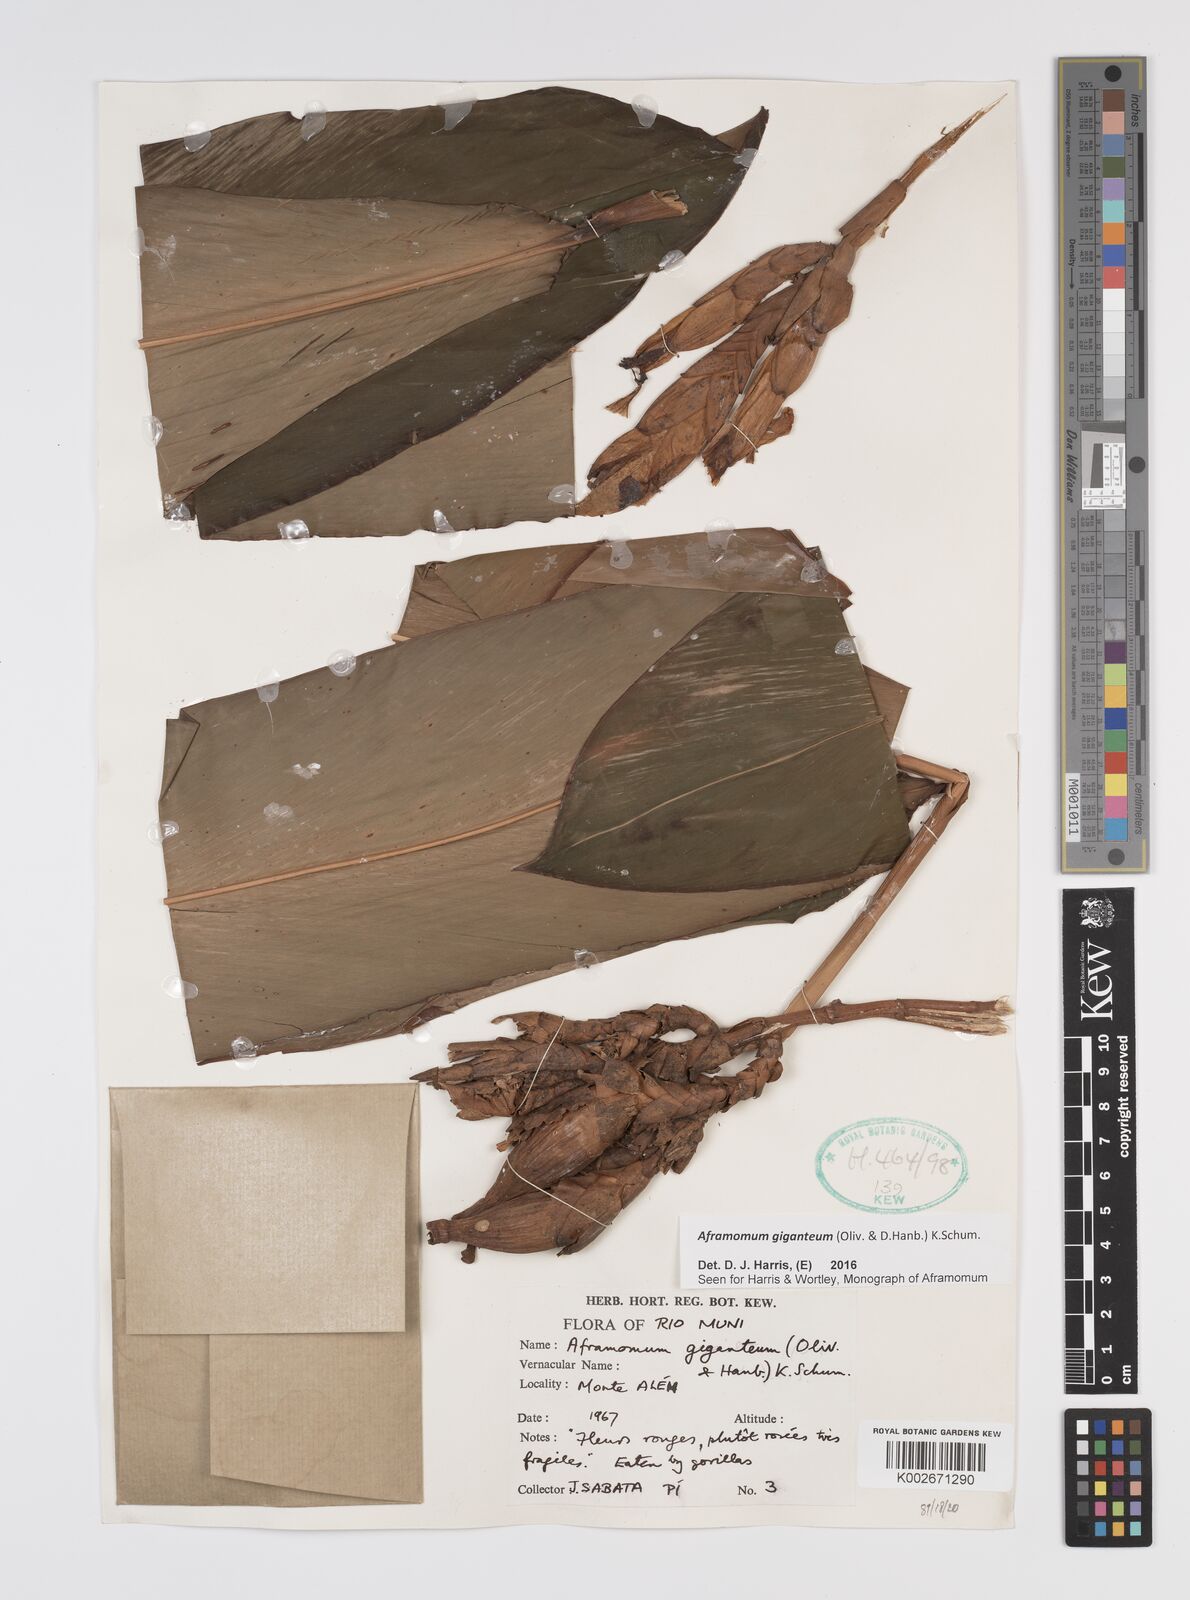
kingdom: Plantae
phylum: Tracheophyta
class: Liliopsida
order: Zingiberales
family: Zingiberaceae
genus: Aframomum
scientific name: Aframomum giganteum
